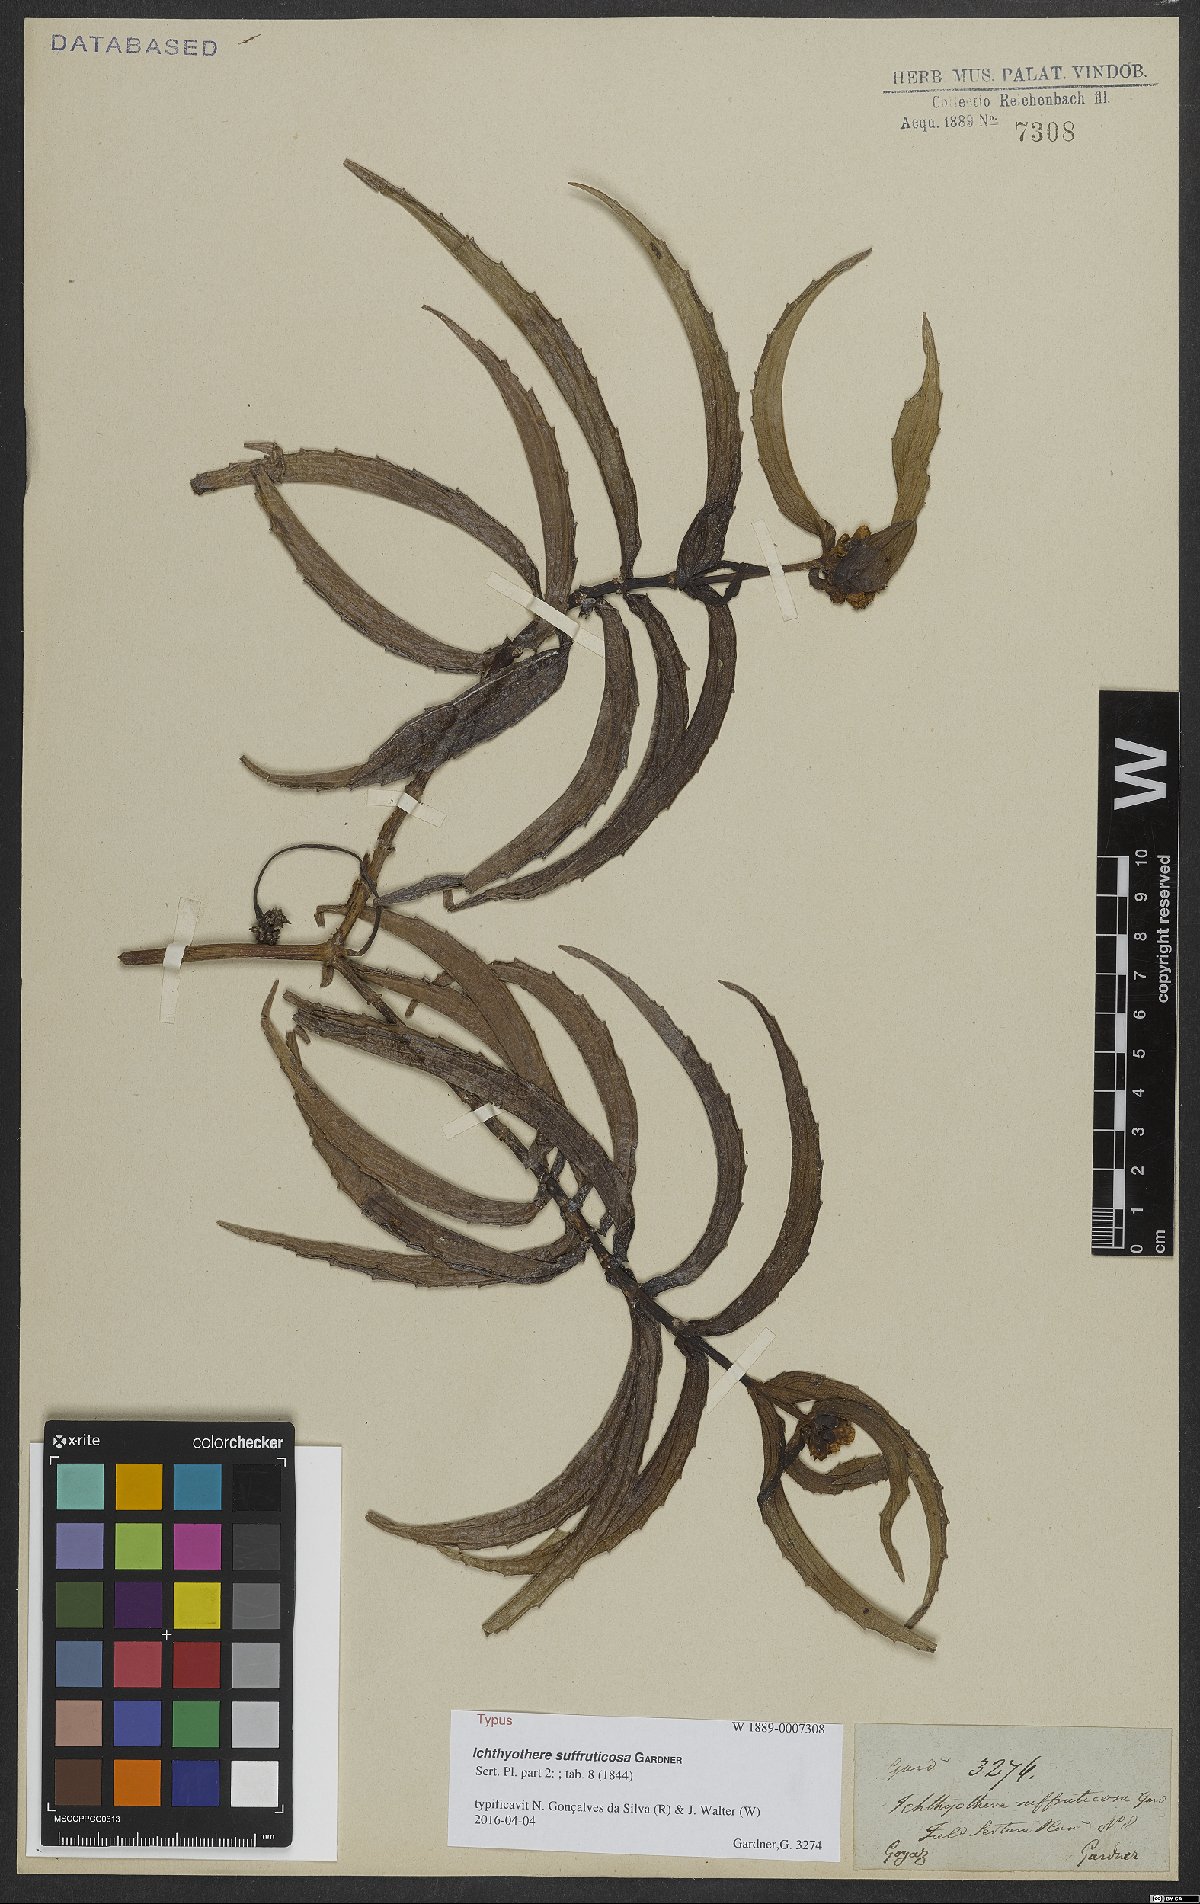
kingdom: Plantae
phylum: Tracheophyta
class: Magnoliopsida
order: Asterales
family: Asteraceae
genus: Ichthyothere
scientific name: Ichthyothere suffruticosa
